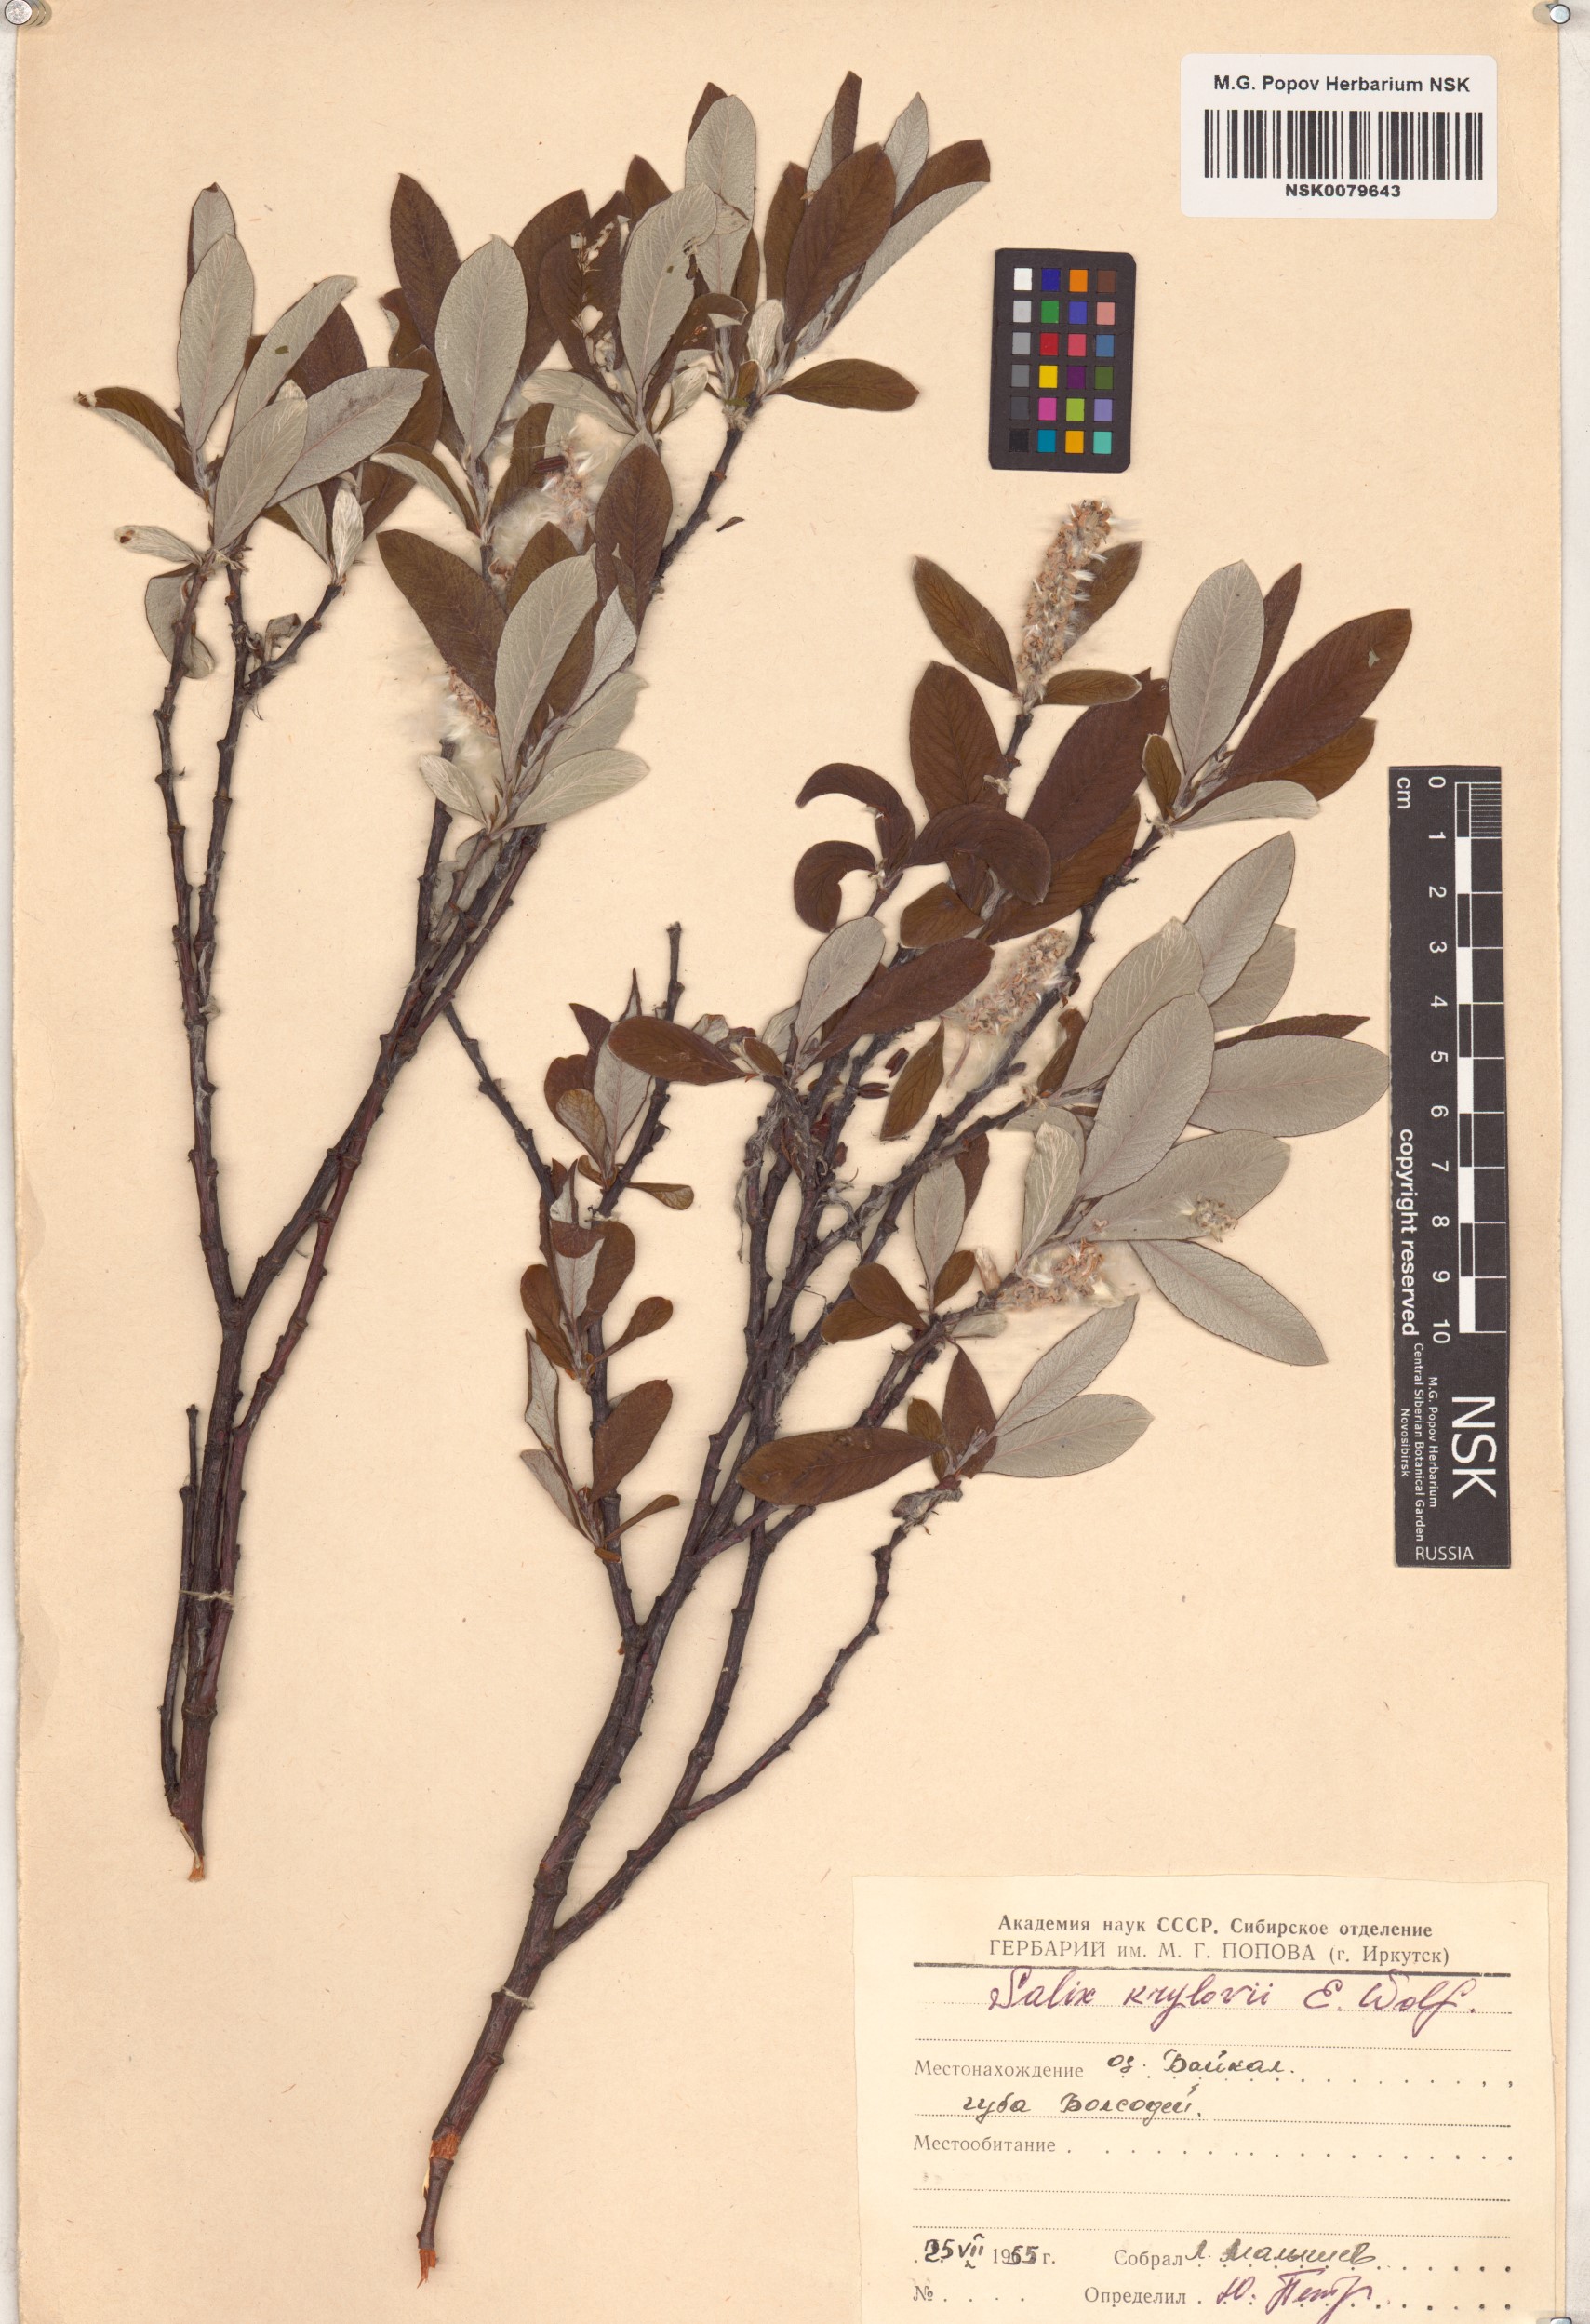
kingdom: Plantae
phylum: Tracheophyta
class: Magnoliopsida
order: Malpighiales
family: Salicaceae
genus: Salix
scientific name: Salix krylovii
